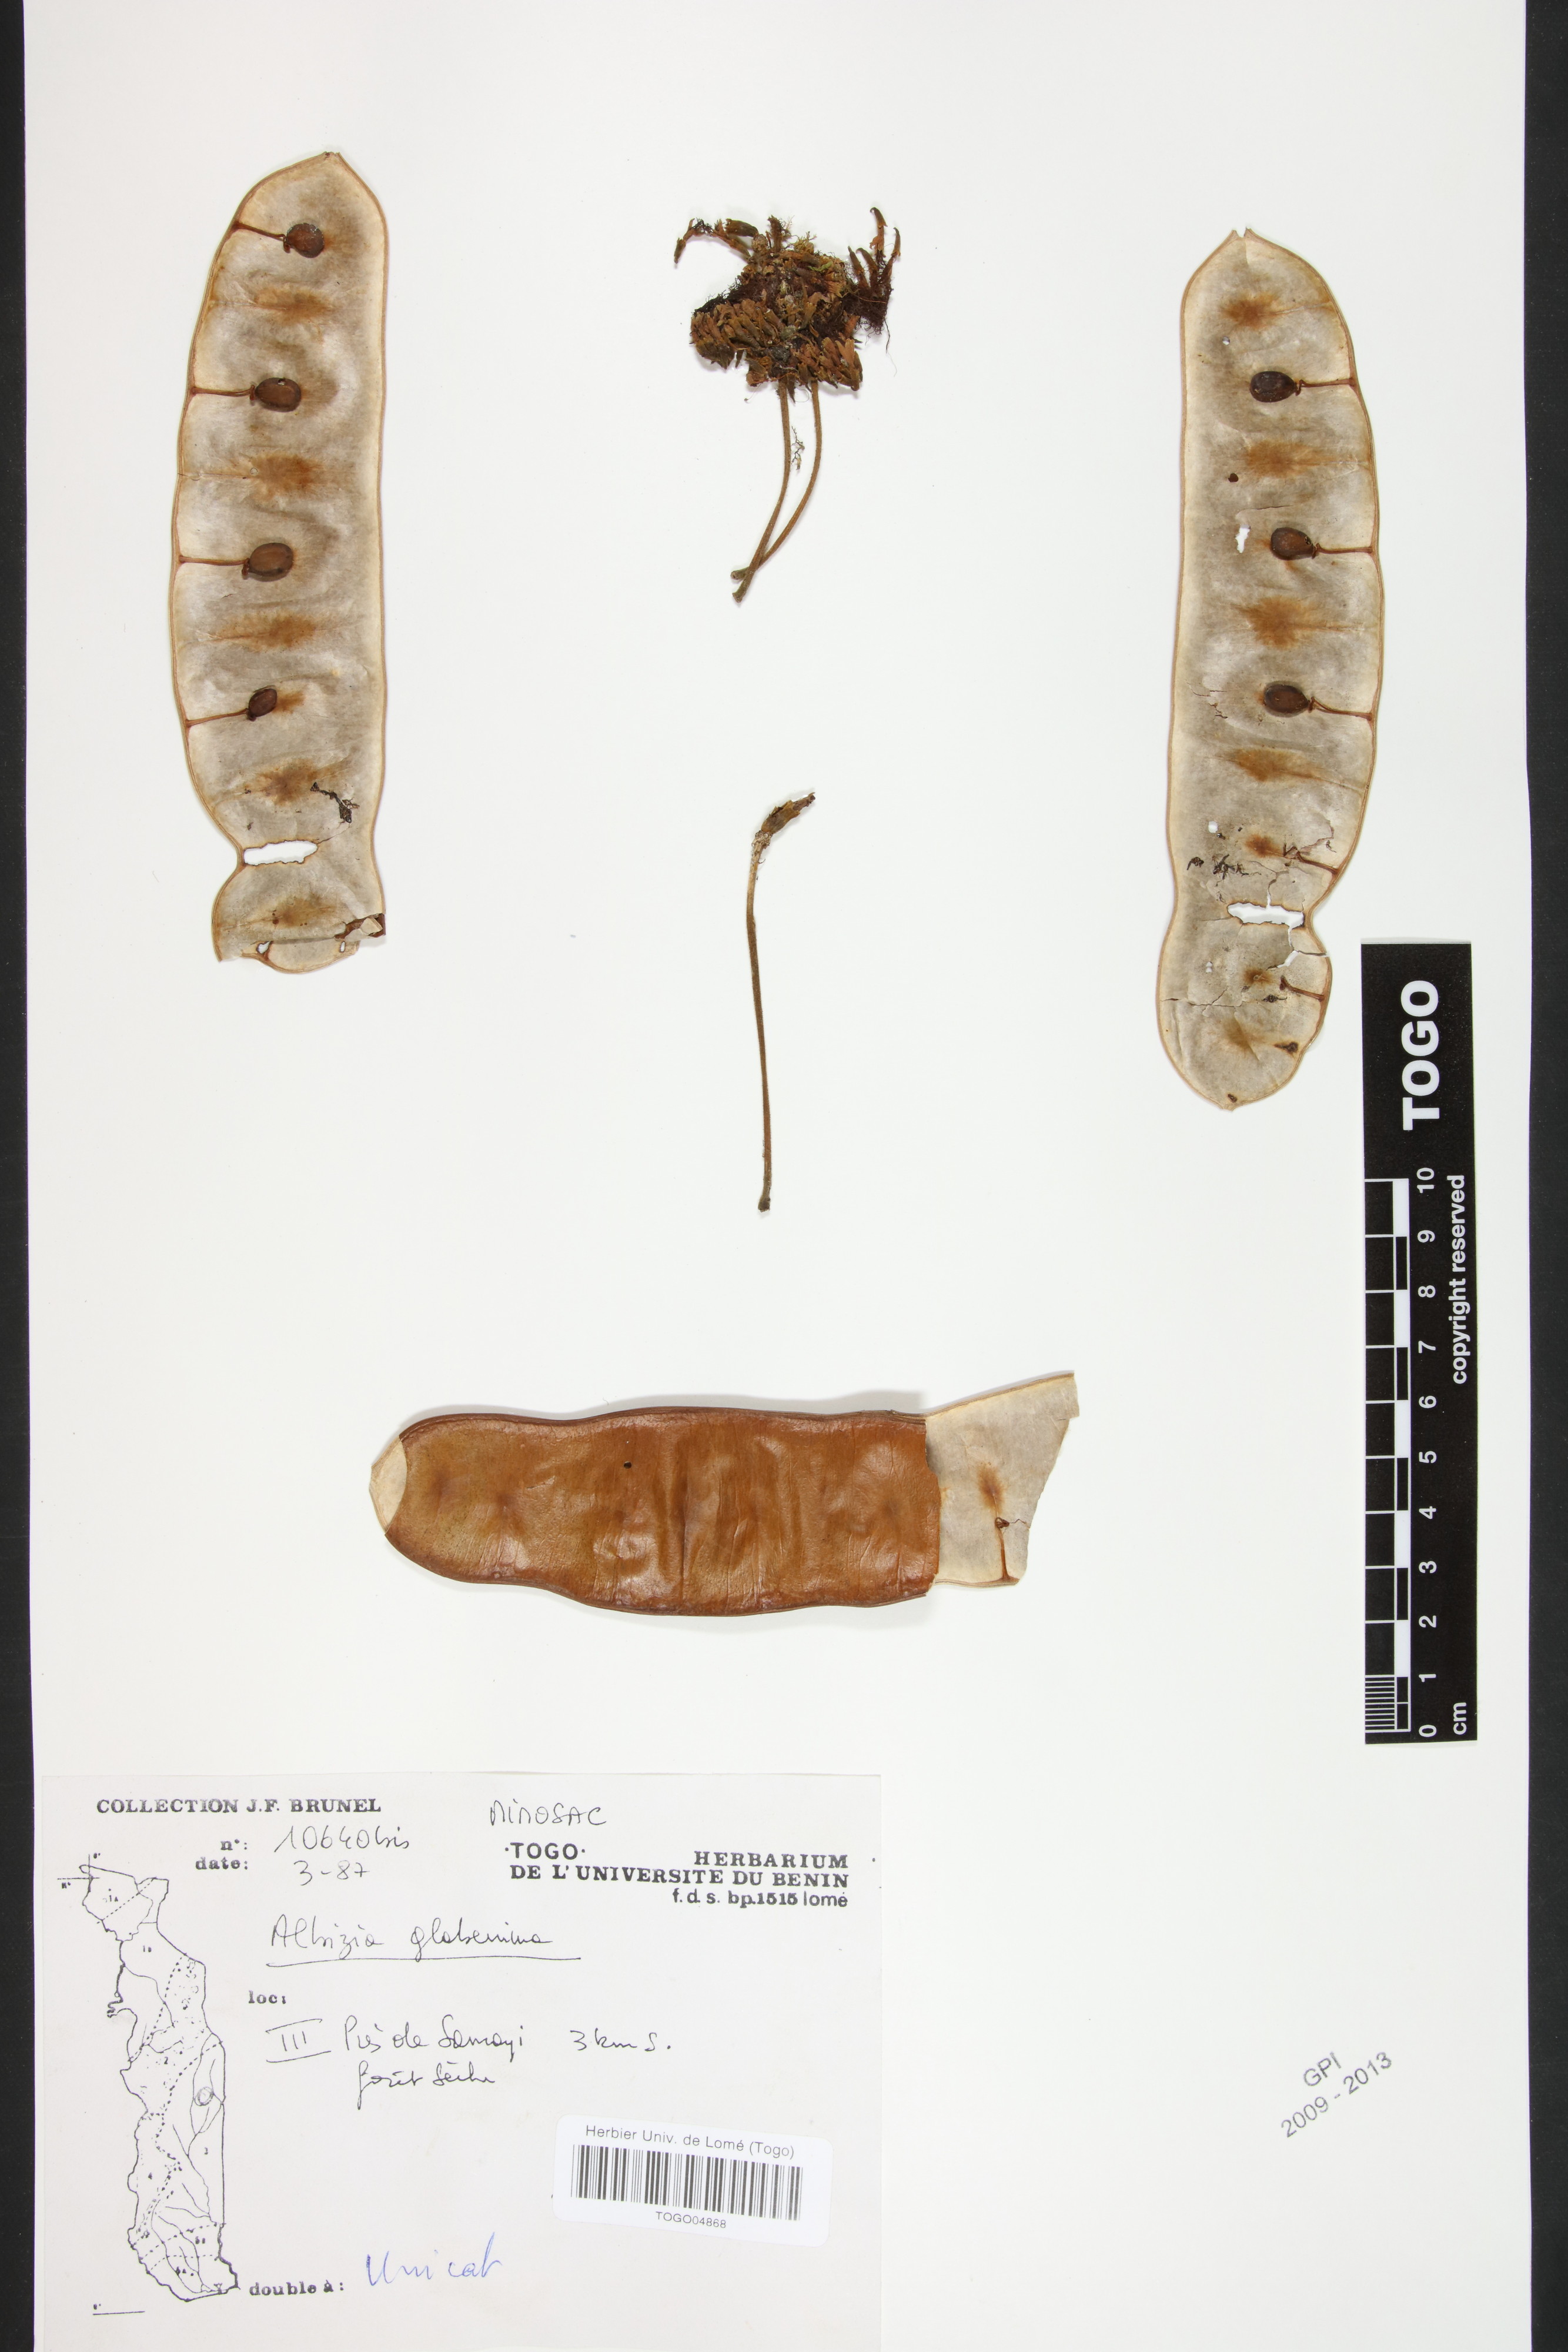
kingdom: Plantae
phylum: Tracheophyta
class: Magnoliopsida
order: Fabales
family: Fabaceae
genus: Albizia
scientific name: Albizia glaberrima
